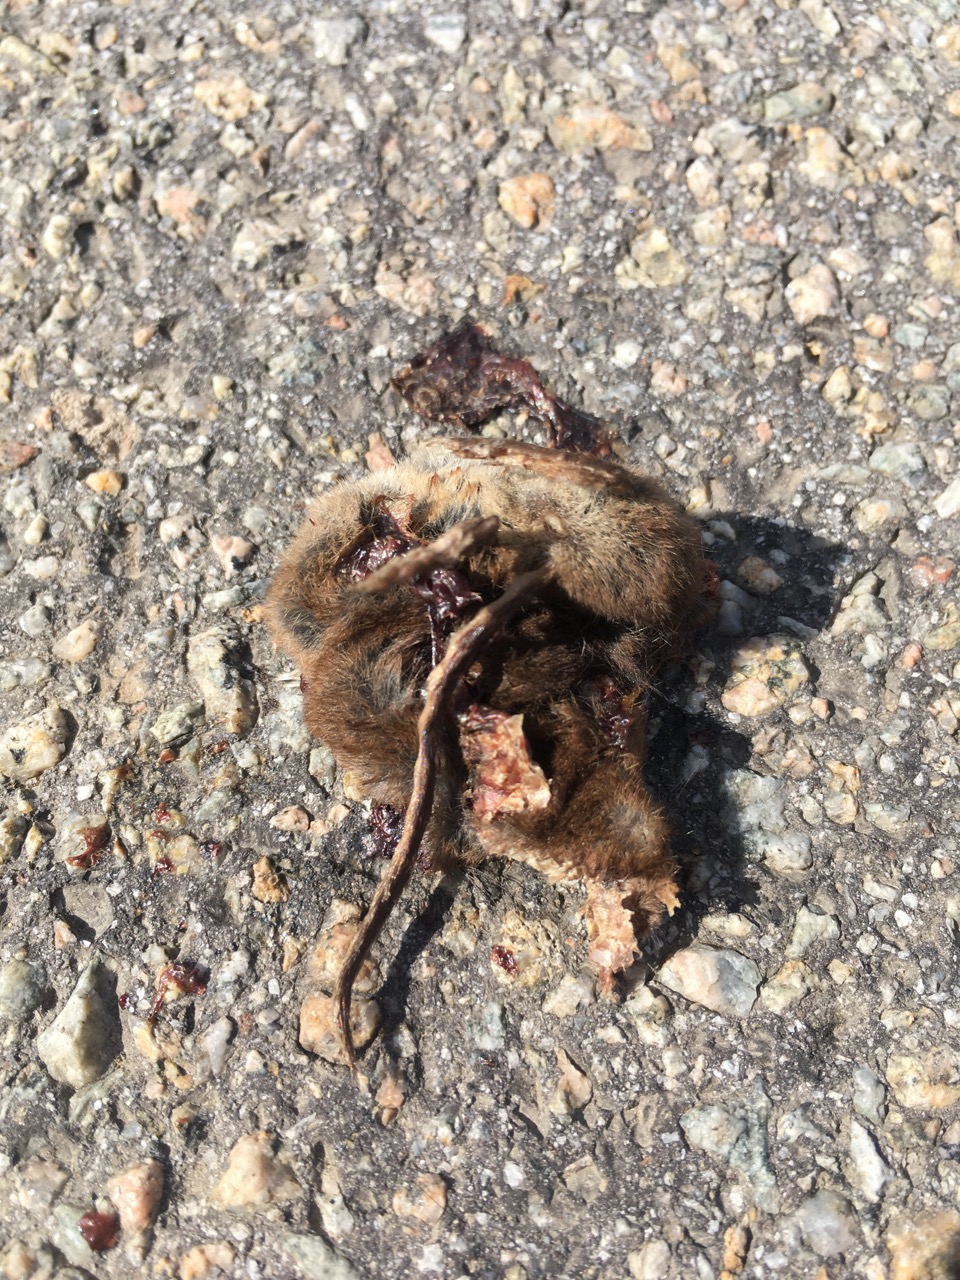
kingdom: Animalia
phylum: Chordata
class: Mammalia
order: Soricomorpha
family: Soricidae
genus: Sorex
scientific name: Sorex araneus
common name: Common shrew
